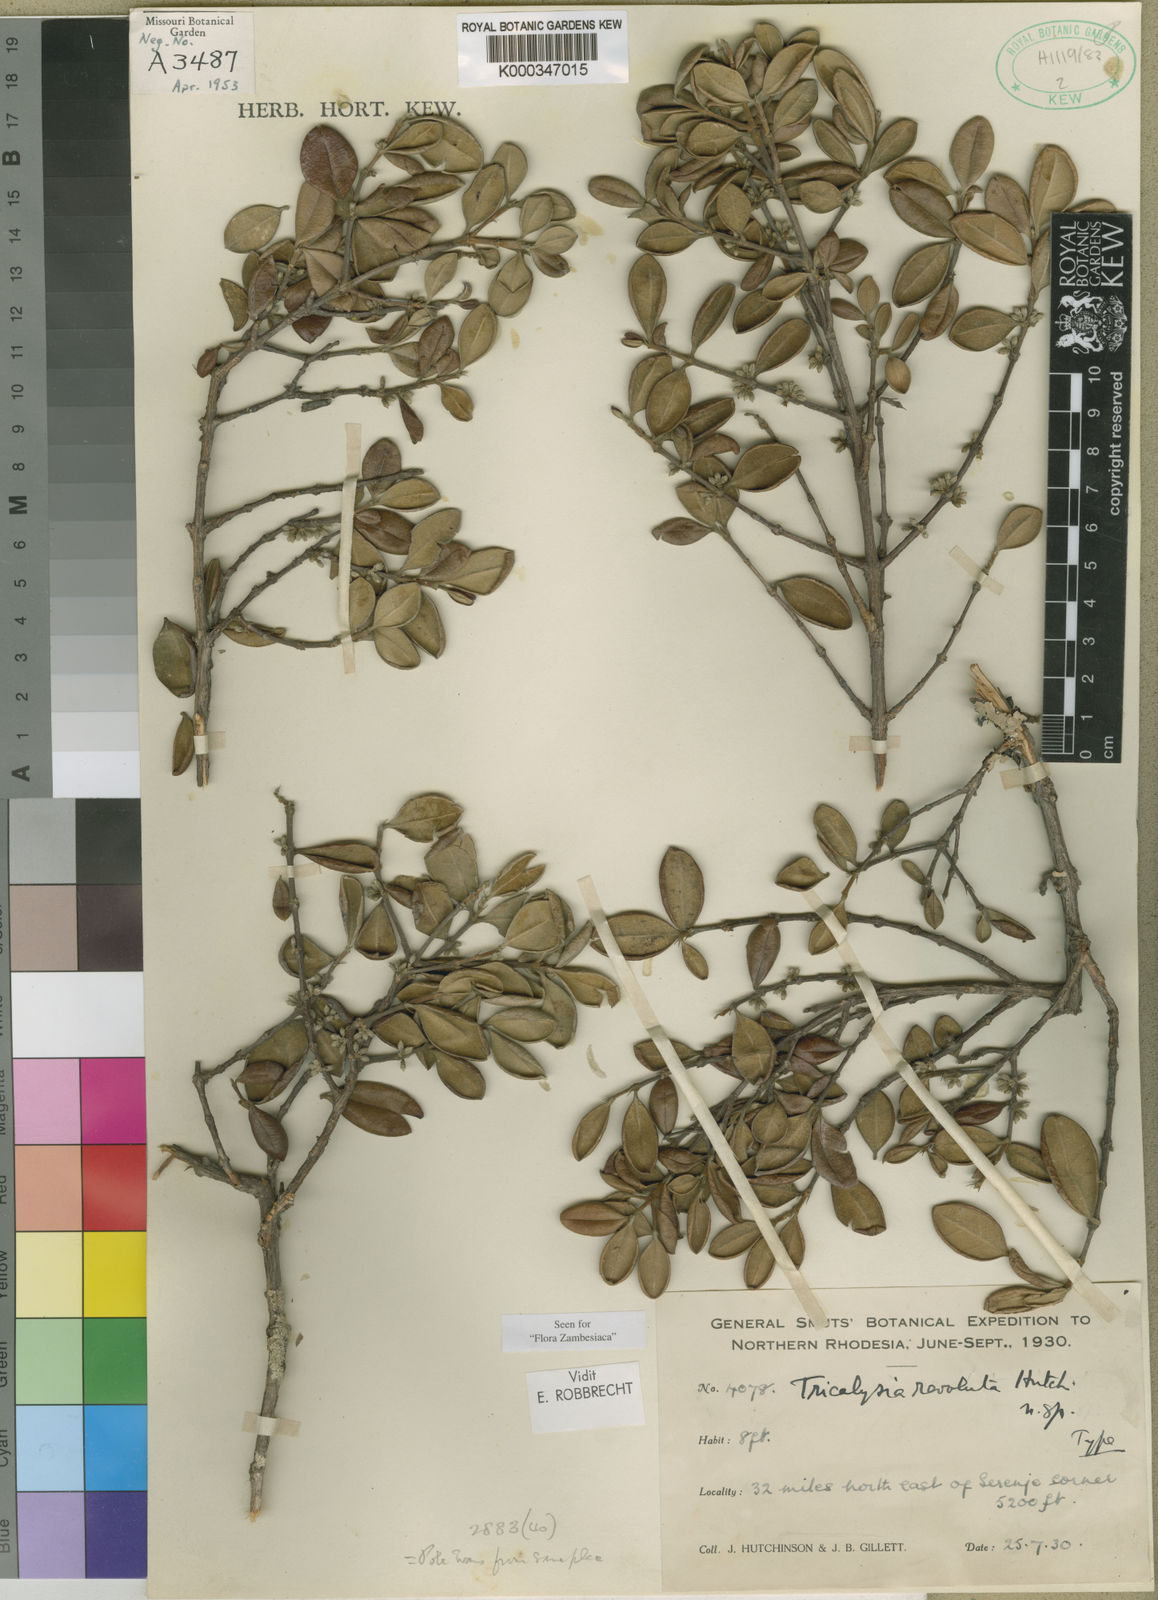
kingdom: Plantae
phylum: Tracheophyta
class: Magnoliopsida
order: Gentianales
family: Rubiaceae
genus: Tricalysia
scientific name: Tricalysia revoluta
